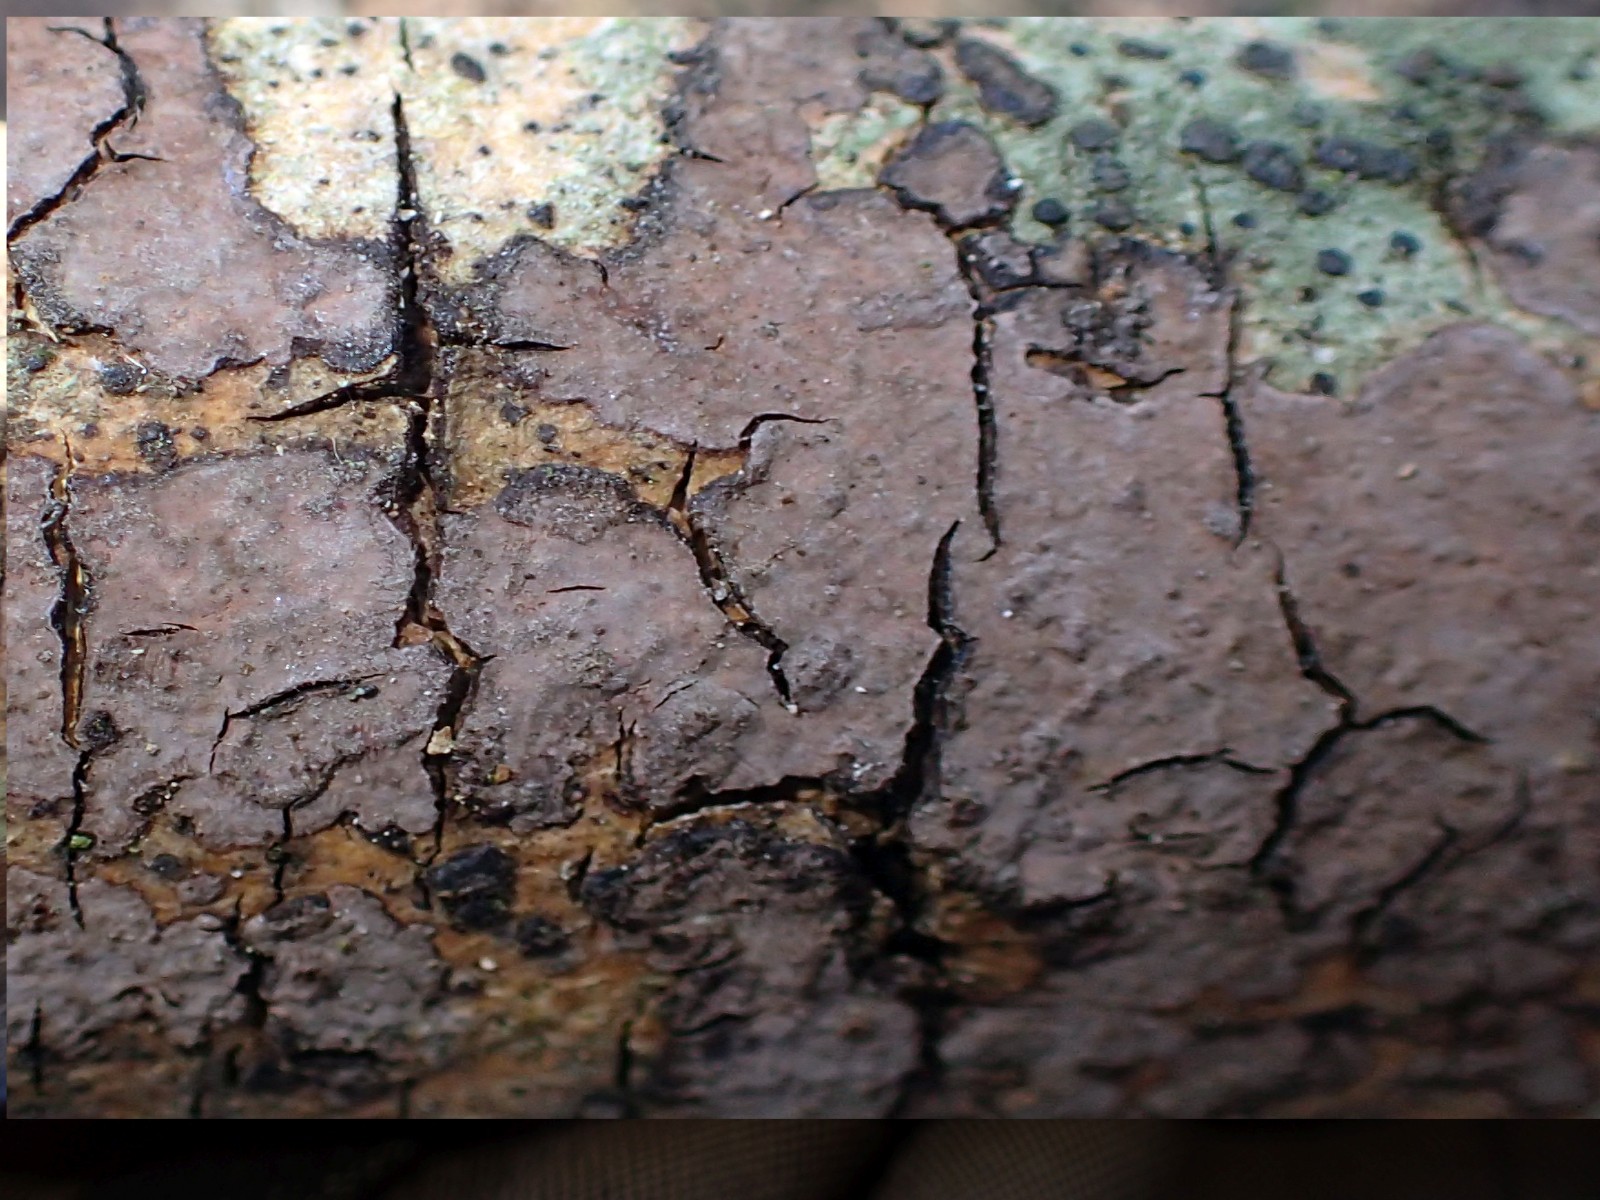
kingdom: Fungi
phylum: Basidiomycota
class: Agaricomycetes
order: Russulales
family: Peniophoraceae
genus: Peniophora
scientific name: Peniophora limitata
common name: mørkrandet voksskind
